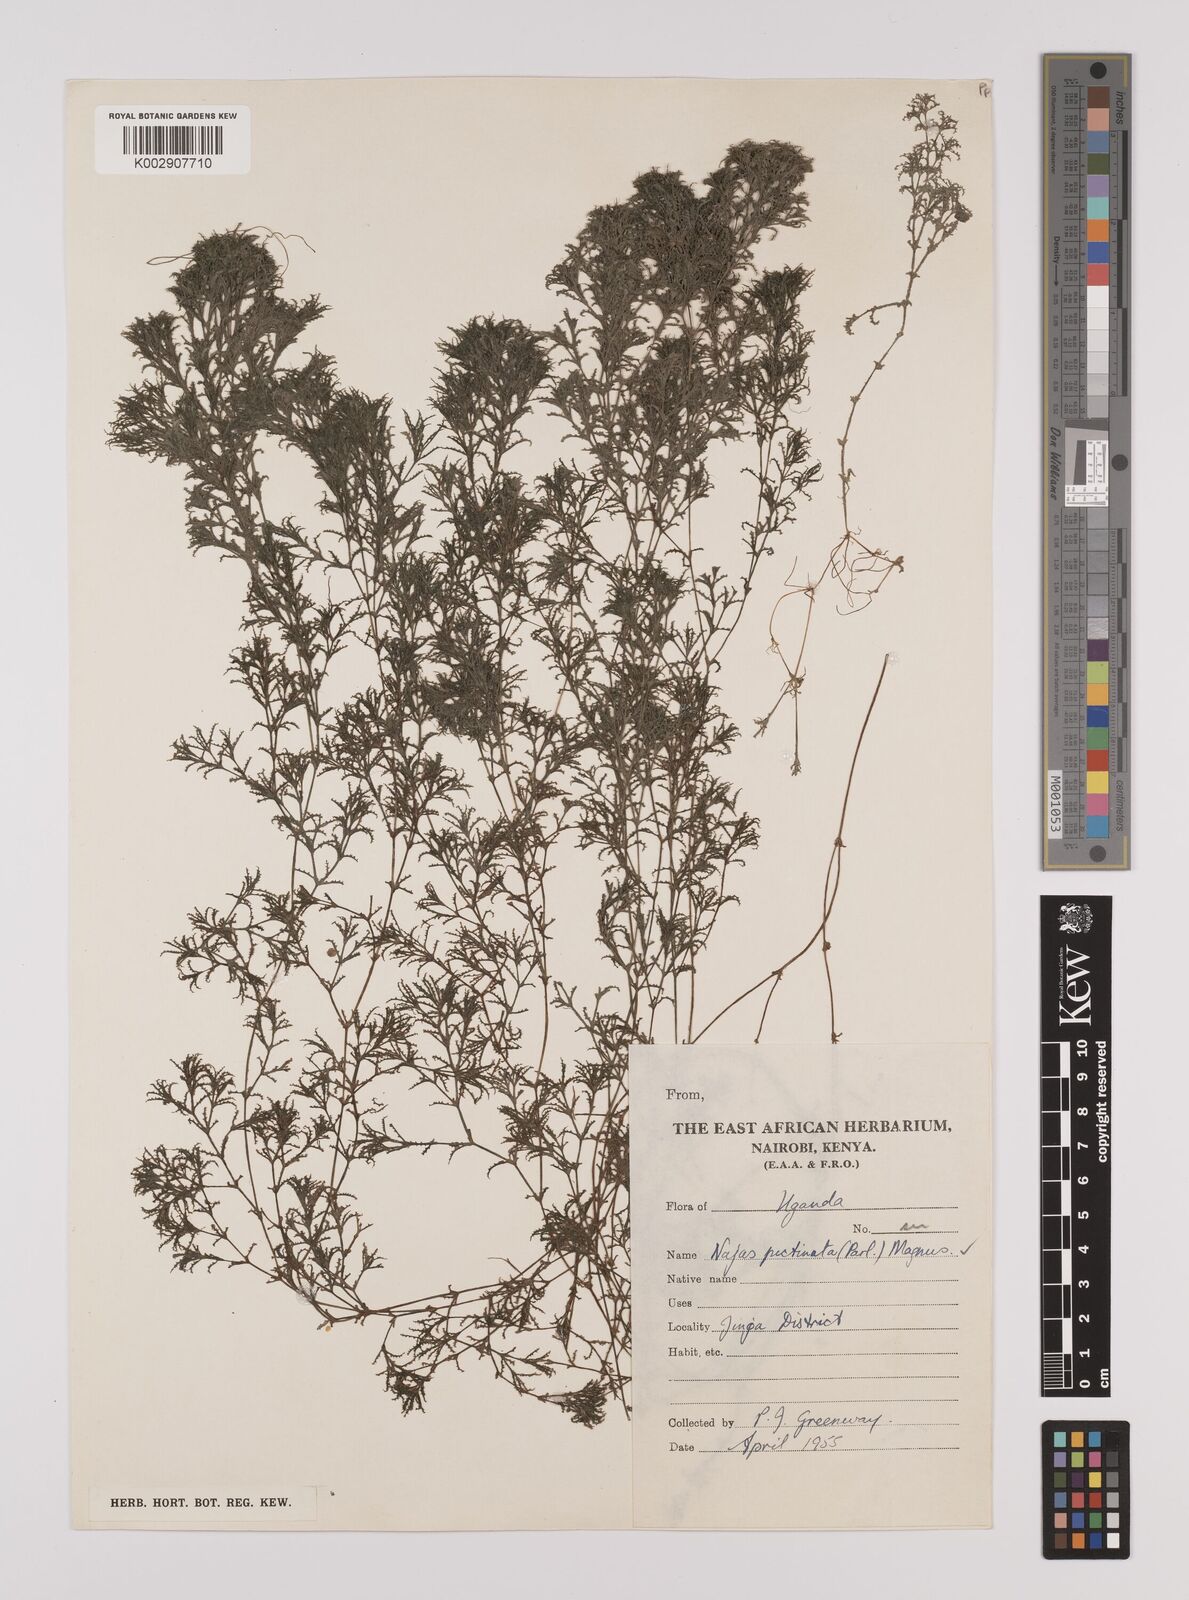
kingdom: Plantae
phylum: Tracheophyta
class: Liliopsida
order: Alismatales
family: Hydrocharitaceae
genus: Najas
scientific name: Najas horrida
